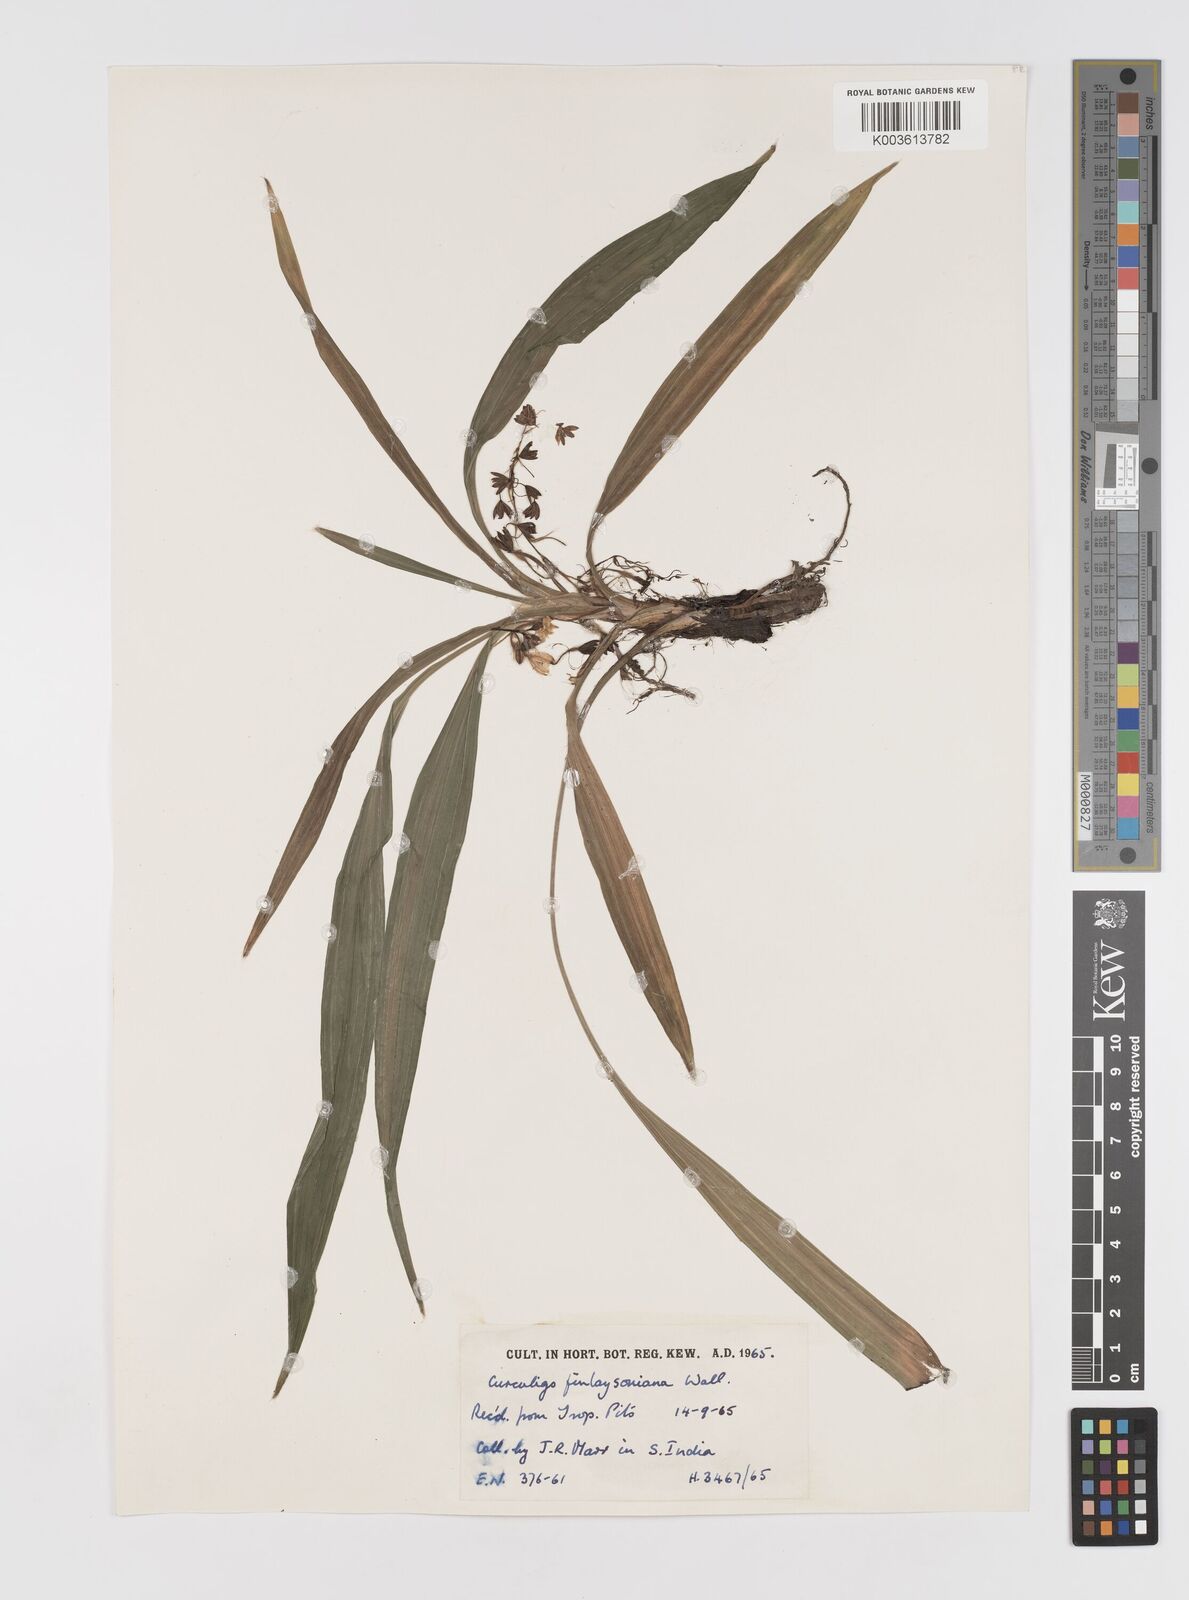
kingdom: Plantae
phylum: Tracheophyta
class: Liliopsida
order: Asparagales
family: Hypoxidaceae
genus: Curculigo
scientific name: Curculigo trichocarpa
